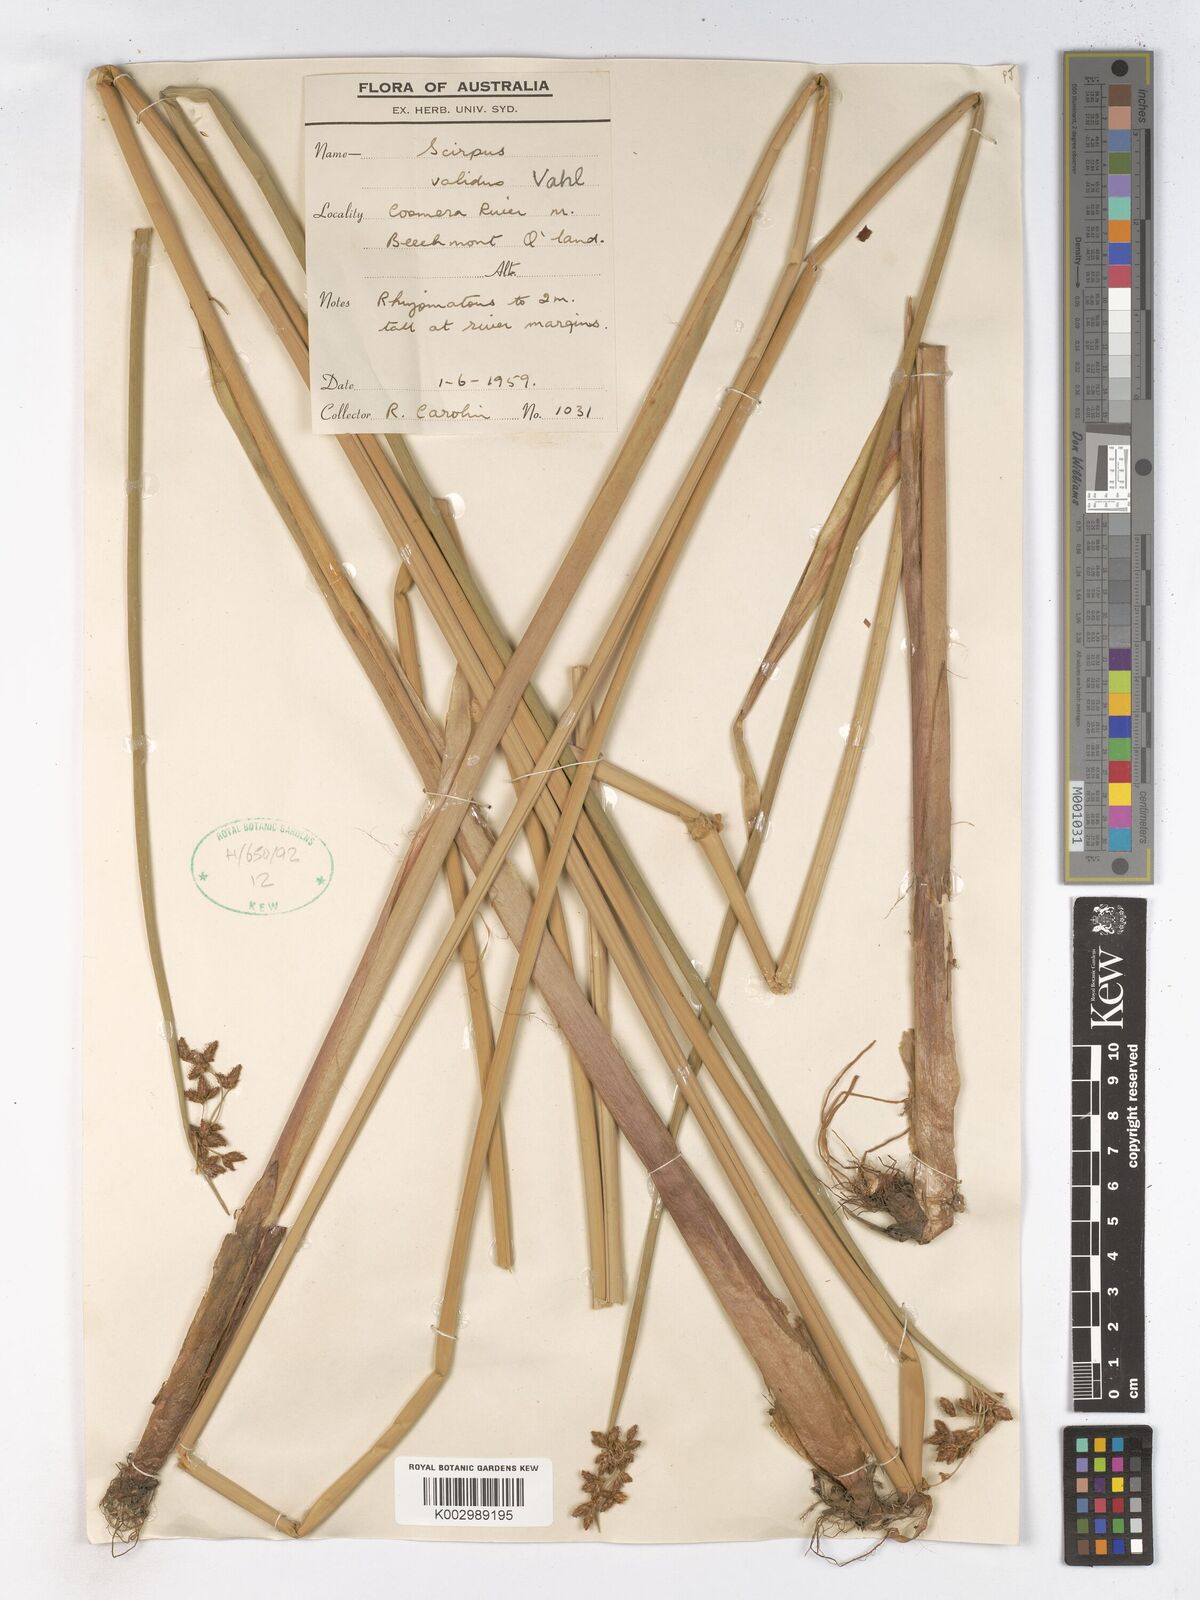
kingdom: Plantae
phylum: Tracheophyta
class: Liliopsida
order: Poales
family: Cyperaceae
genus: Schoenoplectus
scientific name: Schoenoplectus lacustris
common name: Common club-rush
